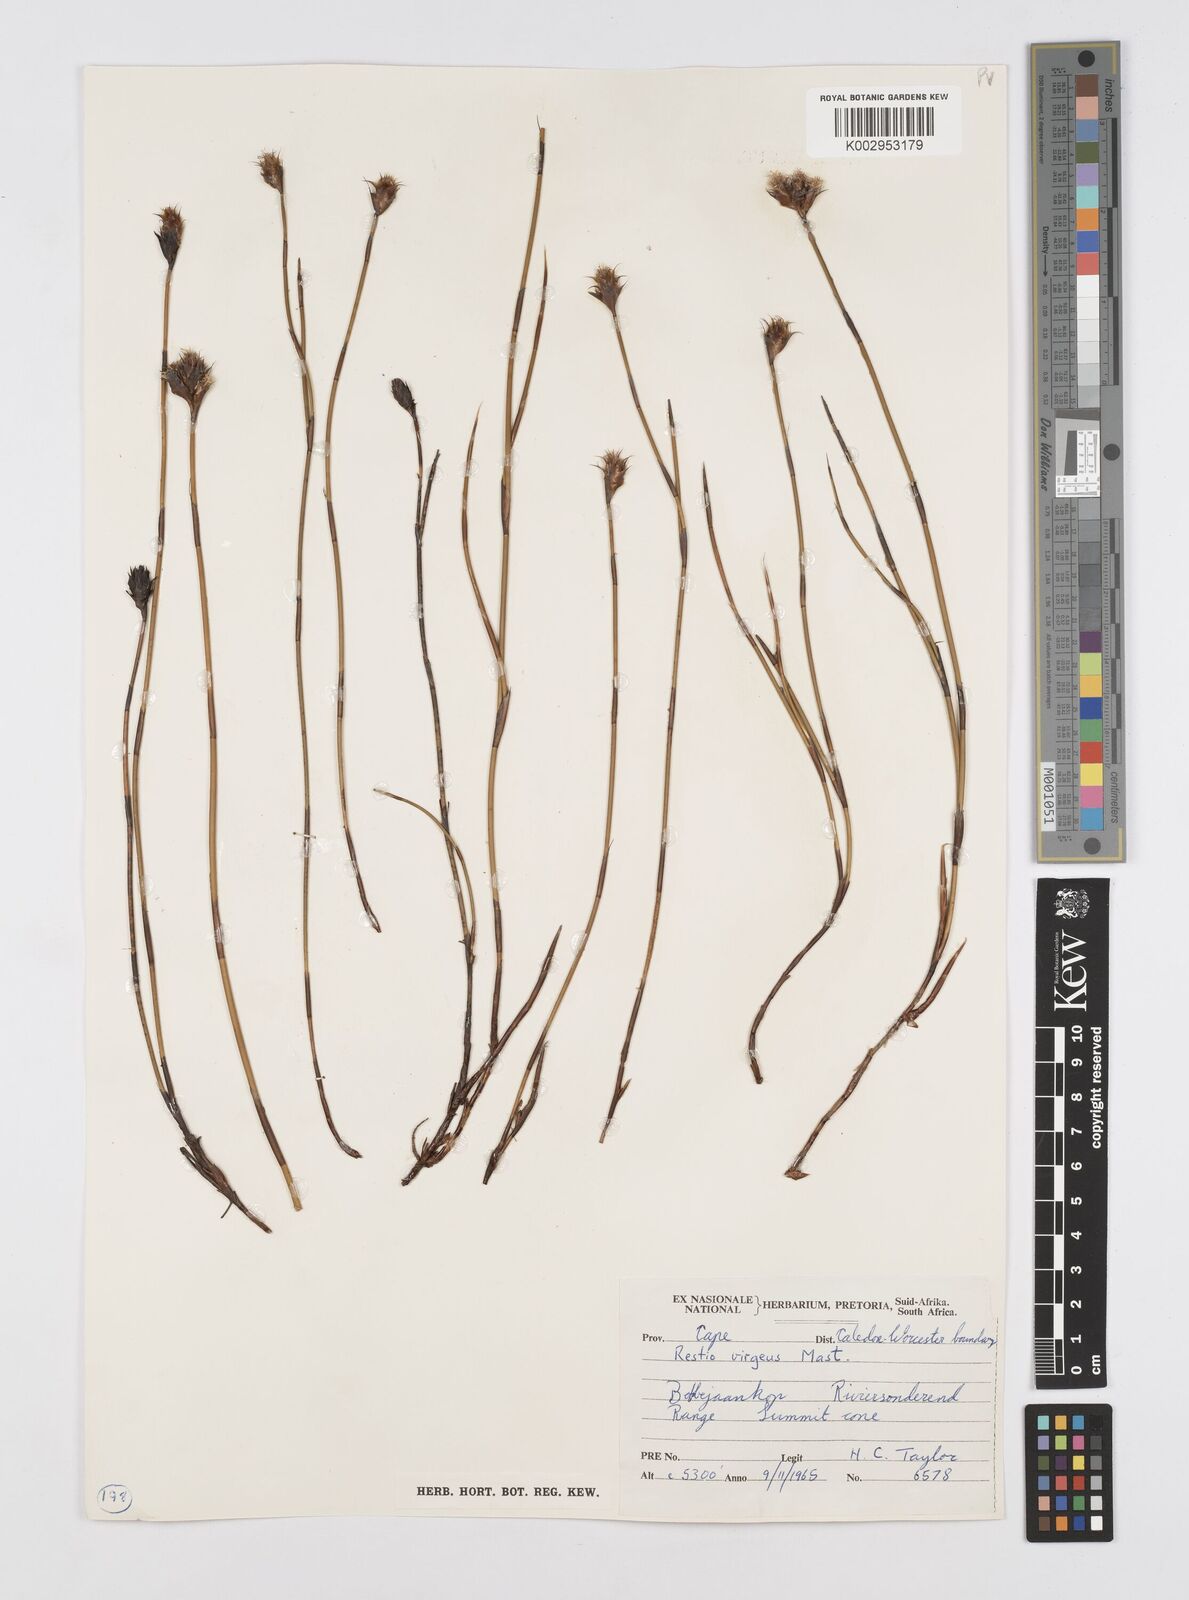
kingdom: Plantae
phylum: Tracheophyta
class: Liliopsida
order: Poales
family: Restionaceae
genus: Restio
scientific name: Restio virgeus
